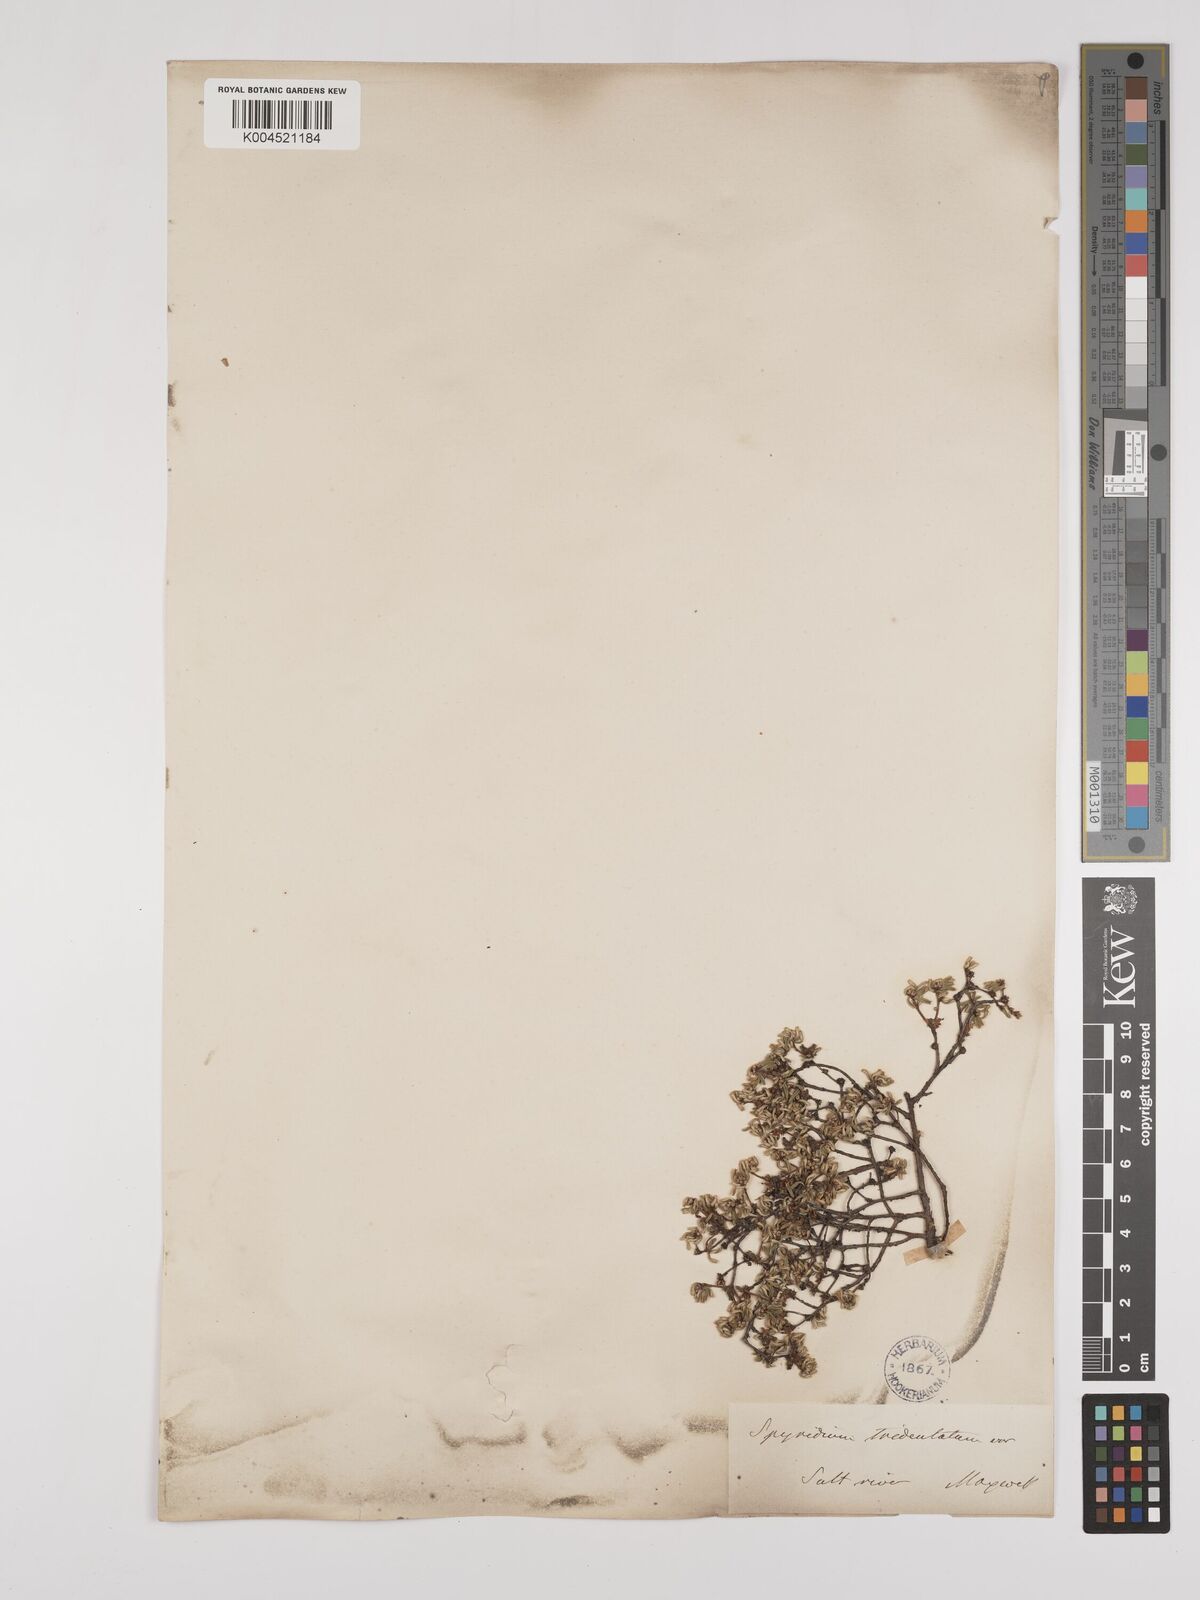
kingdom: Plantae
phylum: Tracheophyta
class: Magnoliopsida
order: Rosales
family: Rhamnaceae
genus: Stenanthemum
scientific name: Stenanthemum tridentatum
